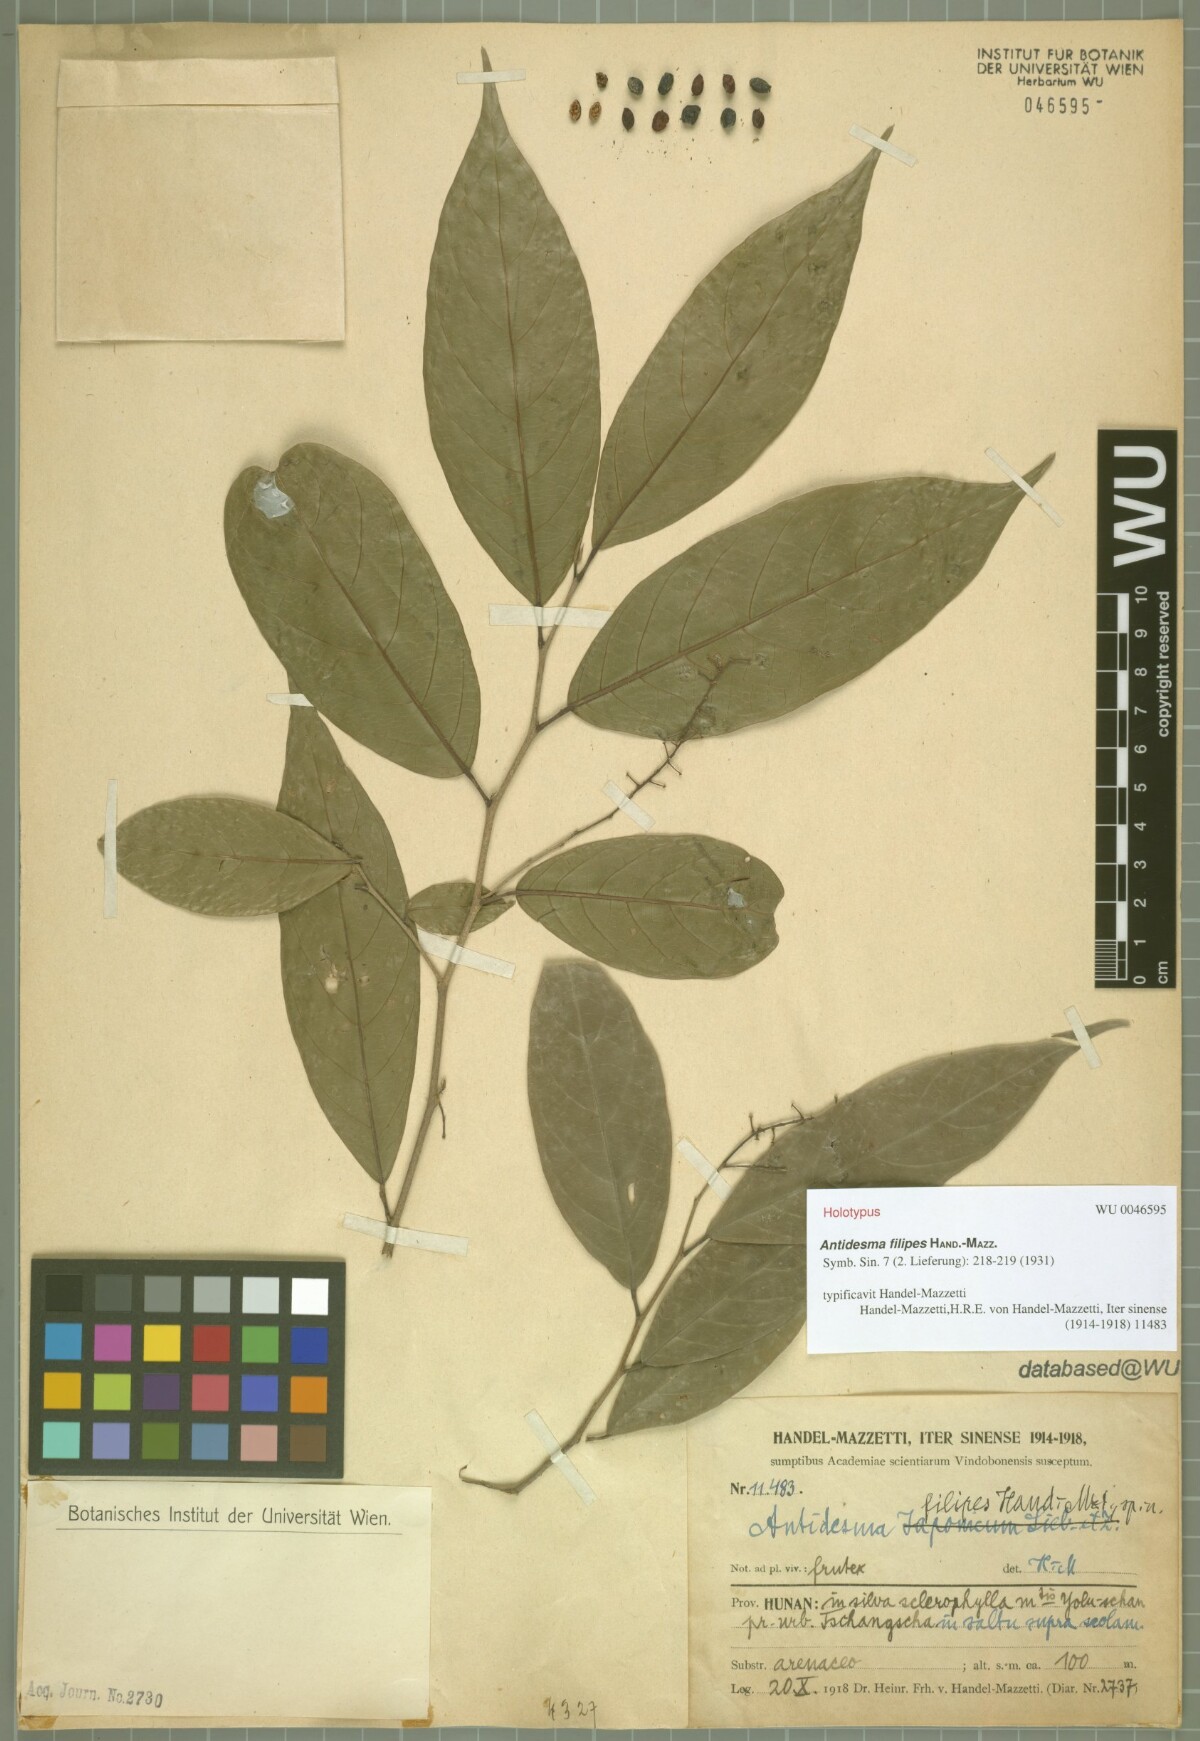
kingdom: Plantae
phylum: Tracheophyta
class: Magnoliopsida
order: Malpighiales
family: Phyllanthaceae
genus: Antidesma
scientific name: Antidesma japonicum
